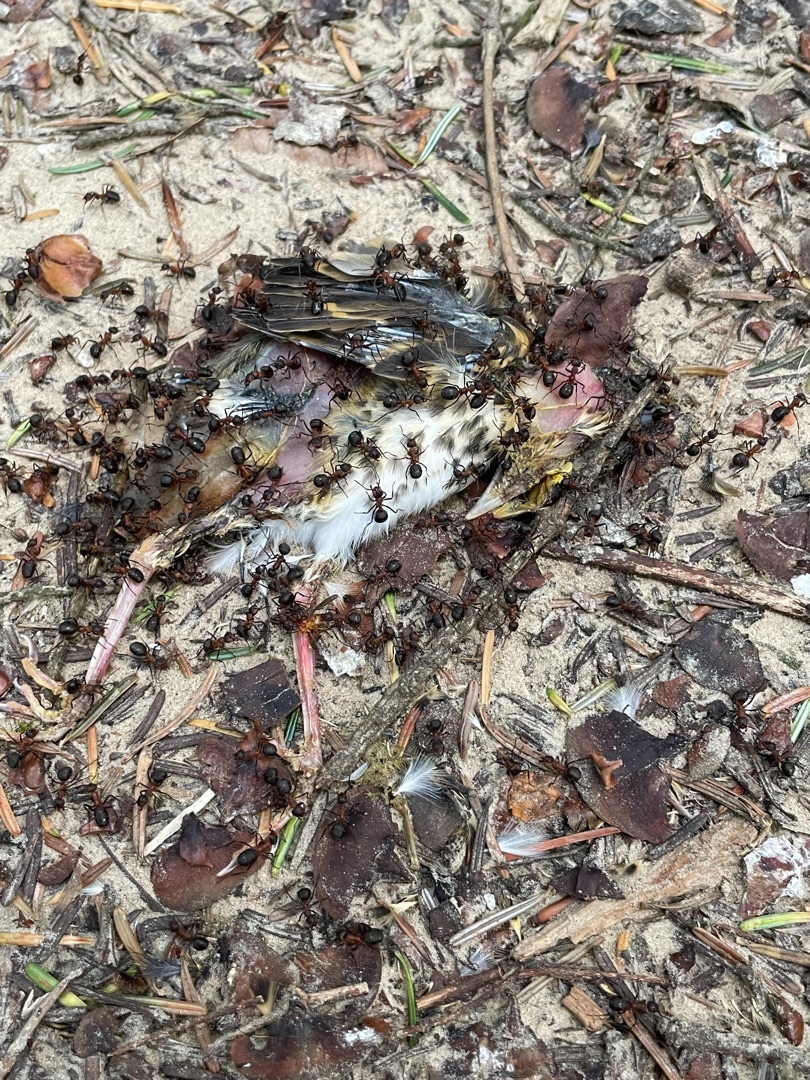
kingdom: Animalia
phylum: Chordata
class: Aves
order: Passeriformes
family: Turdidae
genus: Turdus
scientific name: Turdus philomelos
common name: Sangdrossel
